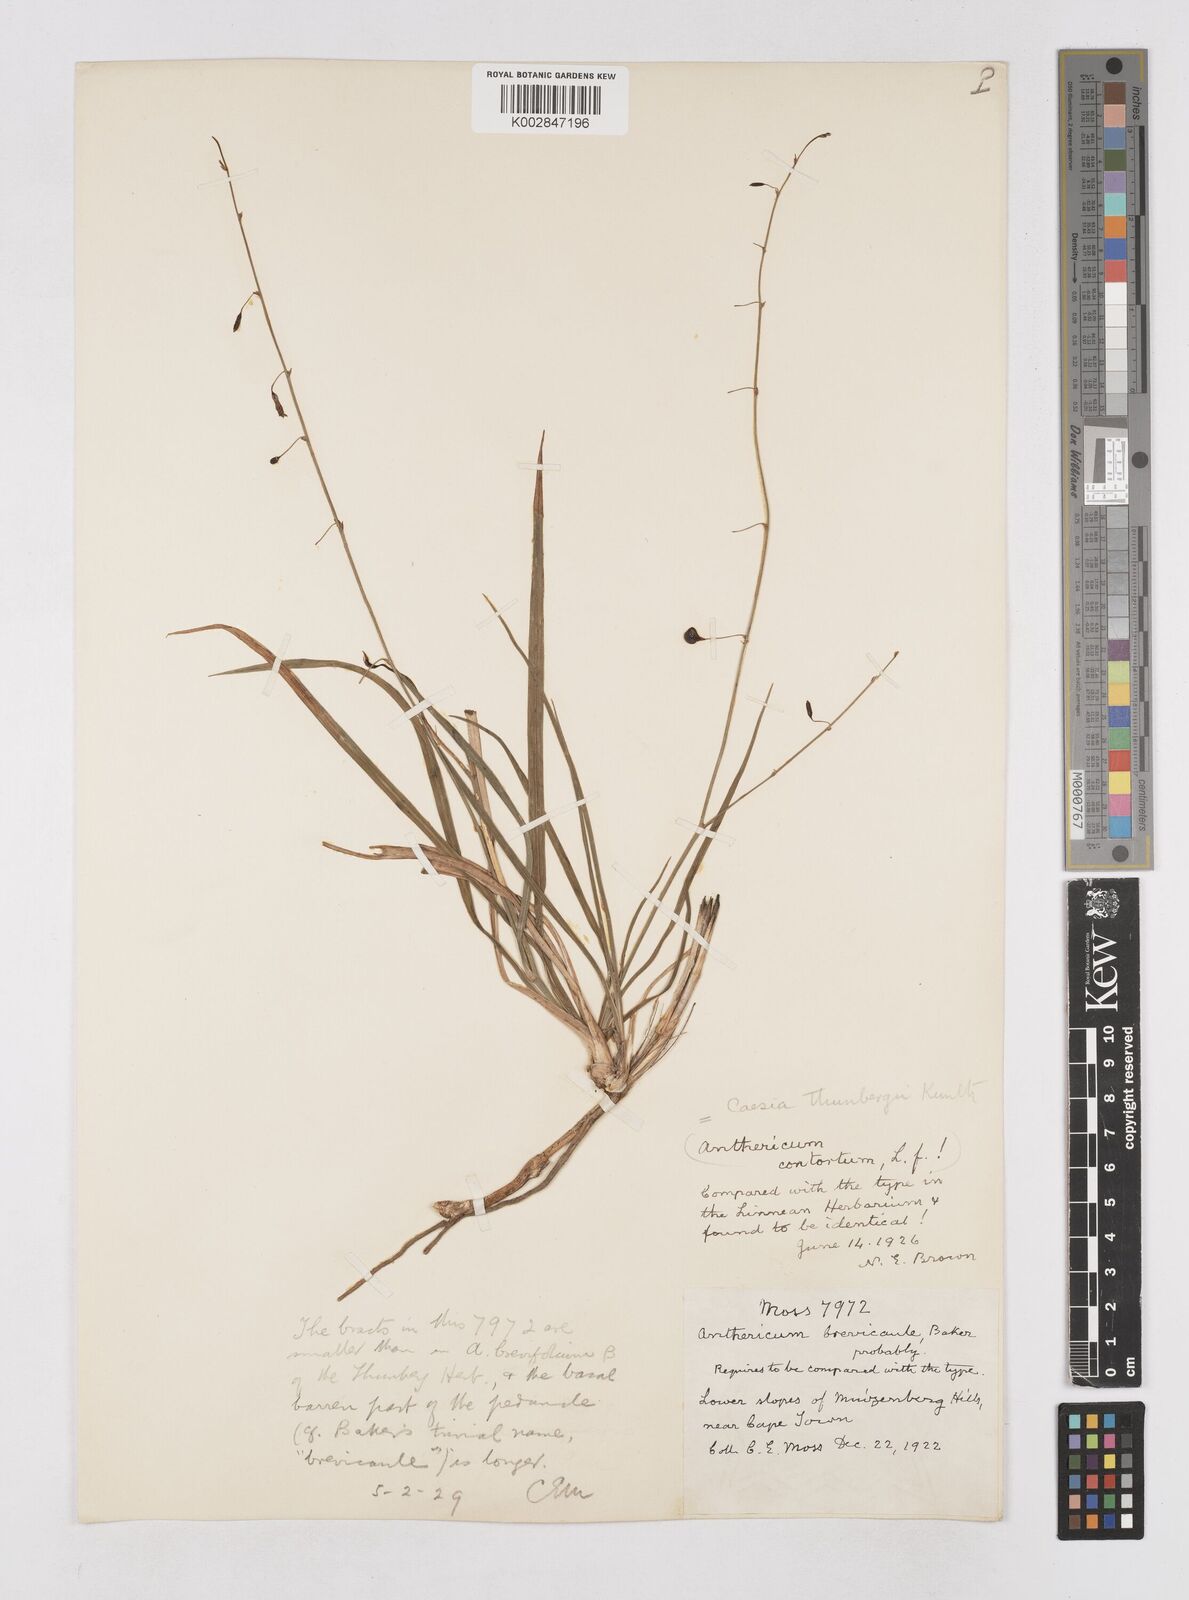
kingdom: Plantae
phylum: Tracheophyta
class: Liliopsida
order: Asparagales
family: Asphodelaceae
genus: Caesia
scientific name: Caesia contorta
